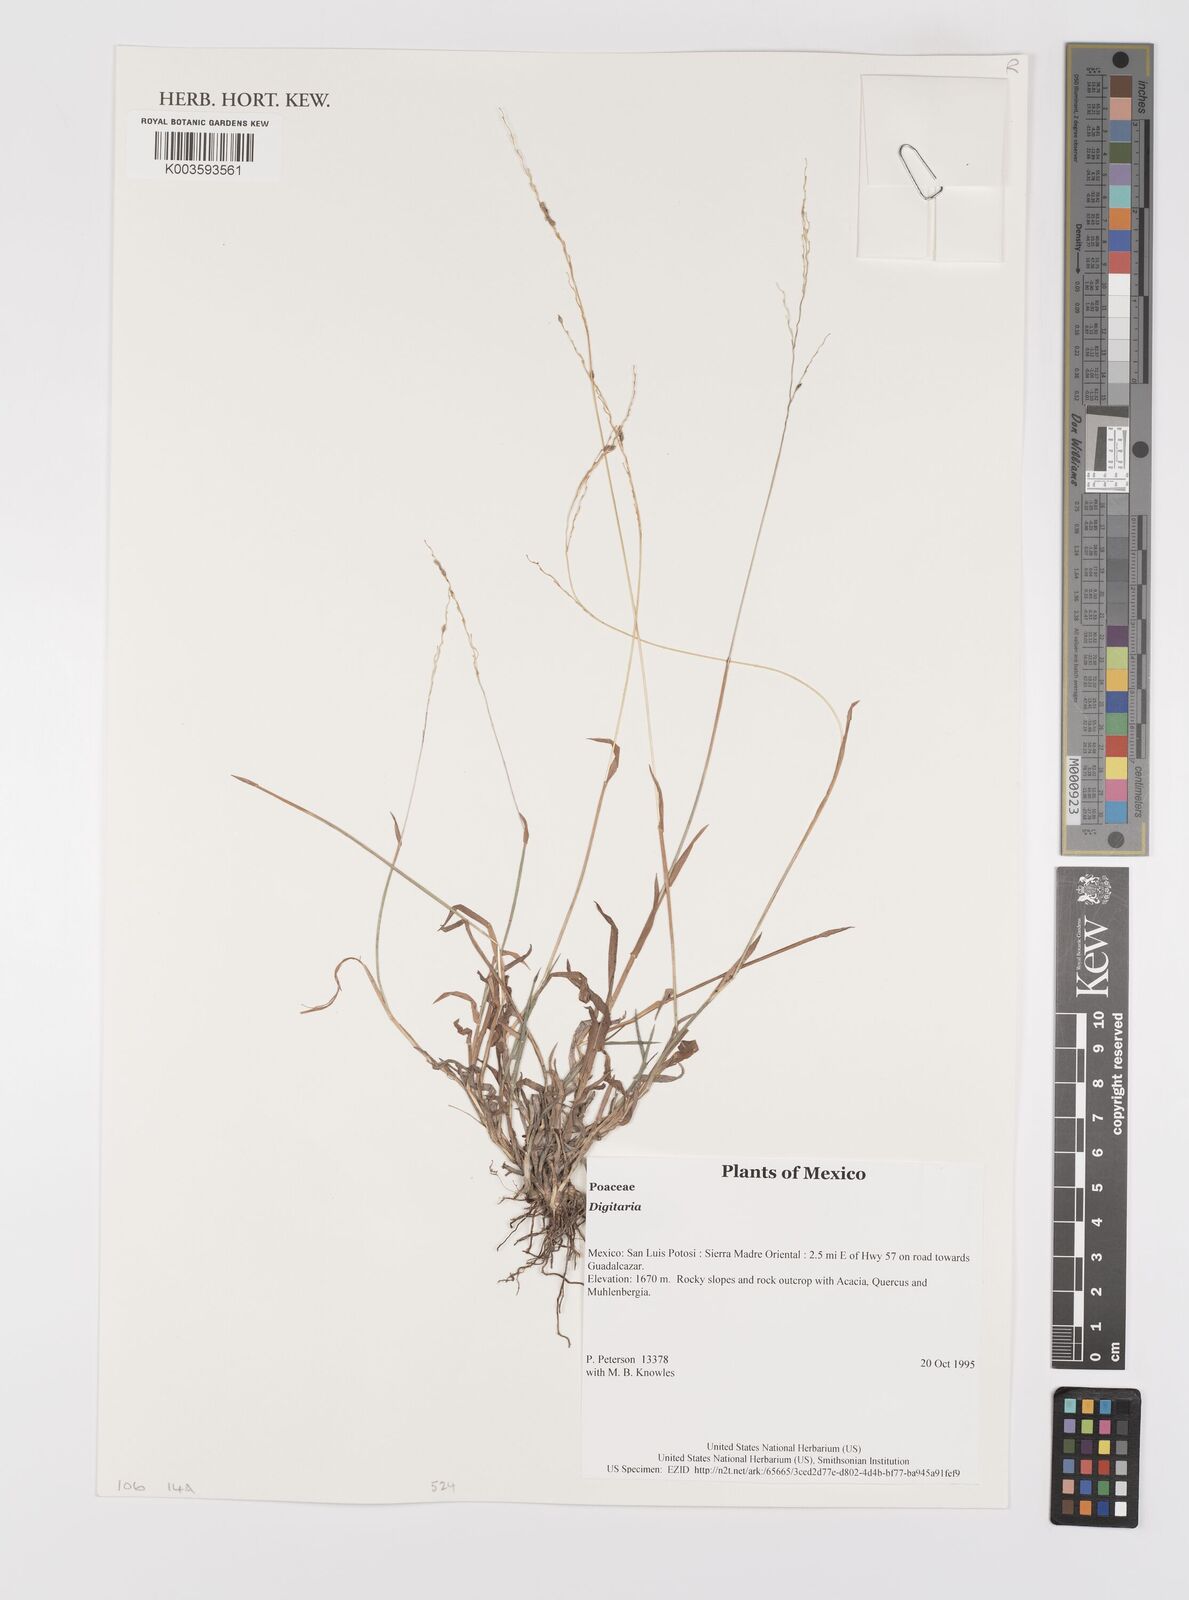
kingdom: Plantae
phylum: Tracheophyta
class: Liliopsida
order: Poales
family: Poaceae
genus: Digitaria
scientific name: Digitaria spec
